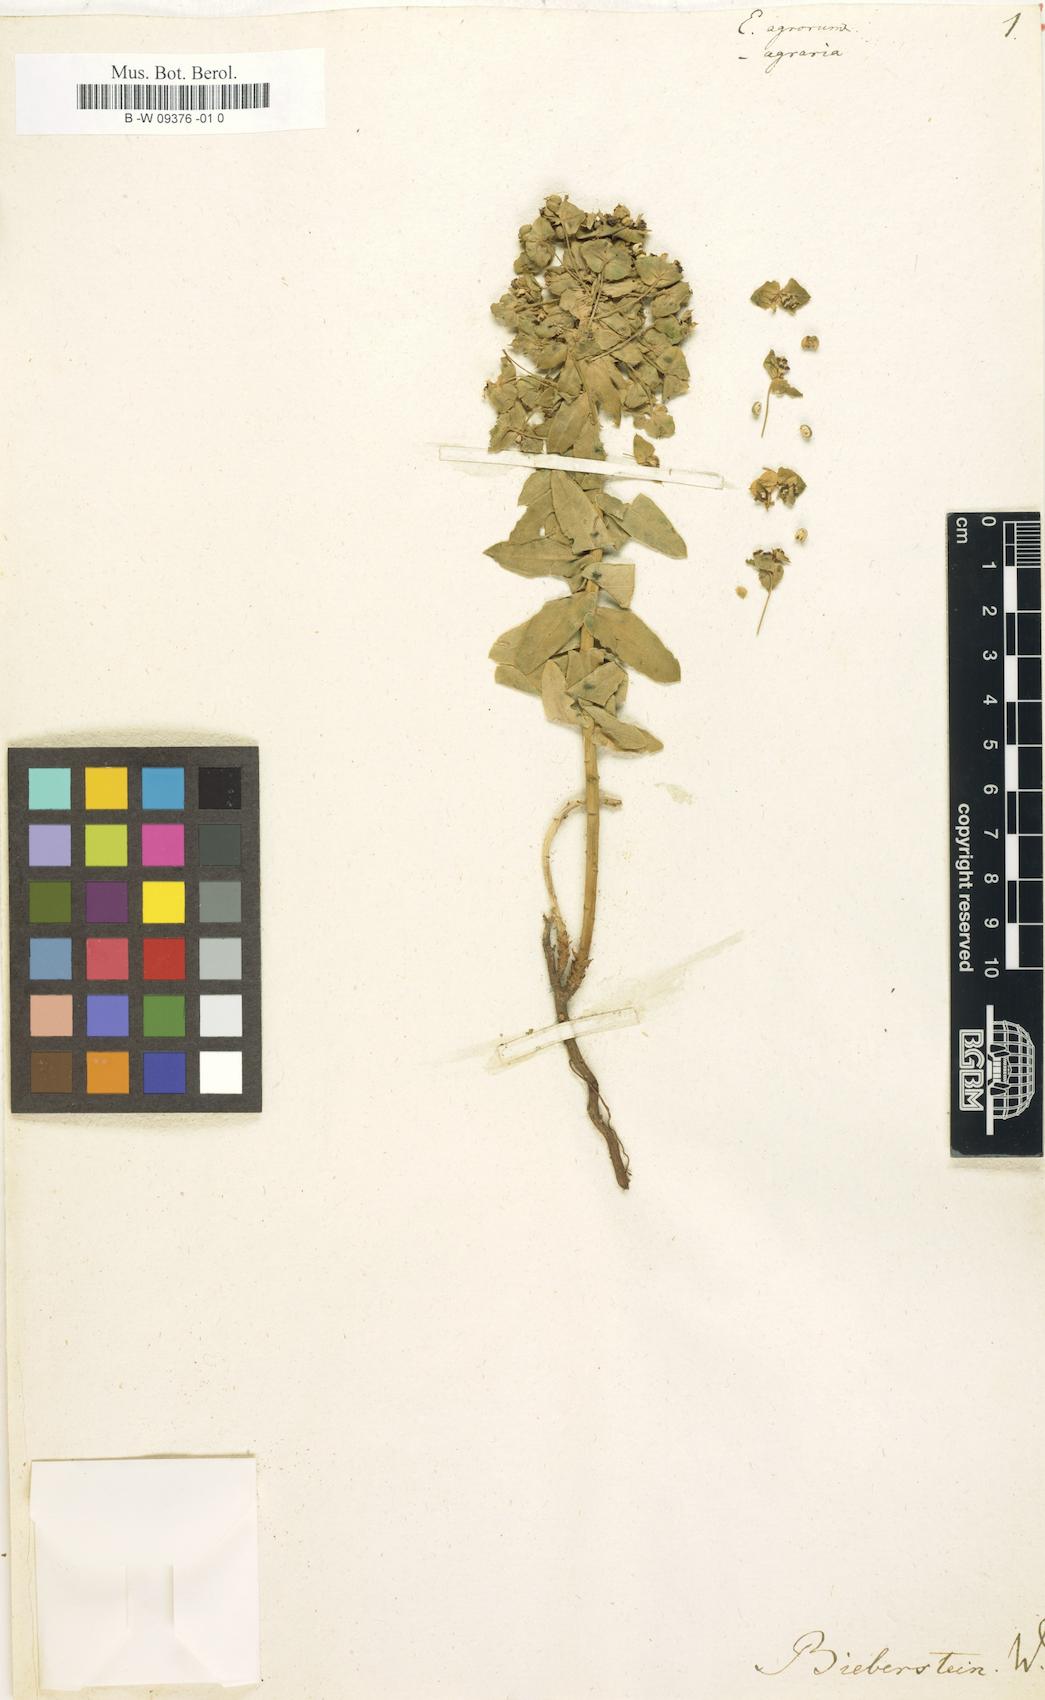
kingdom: Plantae
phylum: Tracheophyta
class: Magnoliopsida
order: Malpighiales
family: Euphorbiaceae
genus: Euphorbia
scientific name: Euphorbia agraria
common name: Urban spurge
